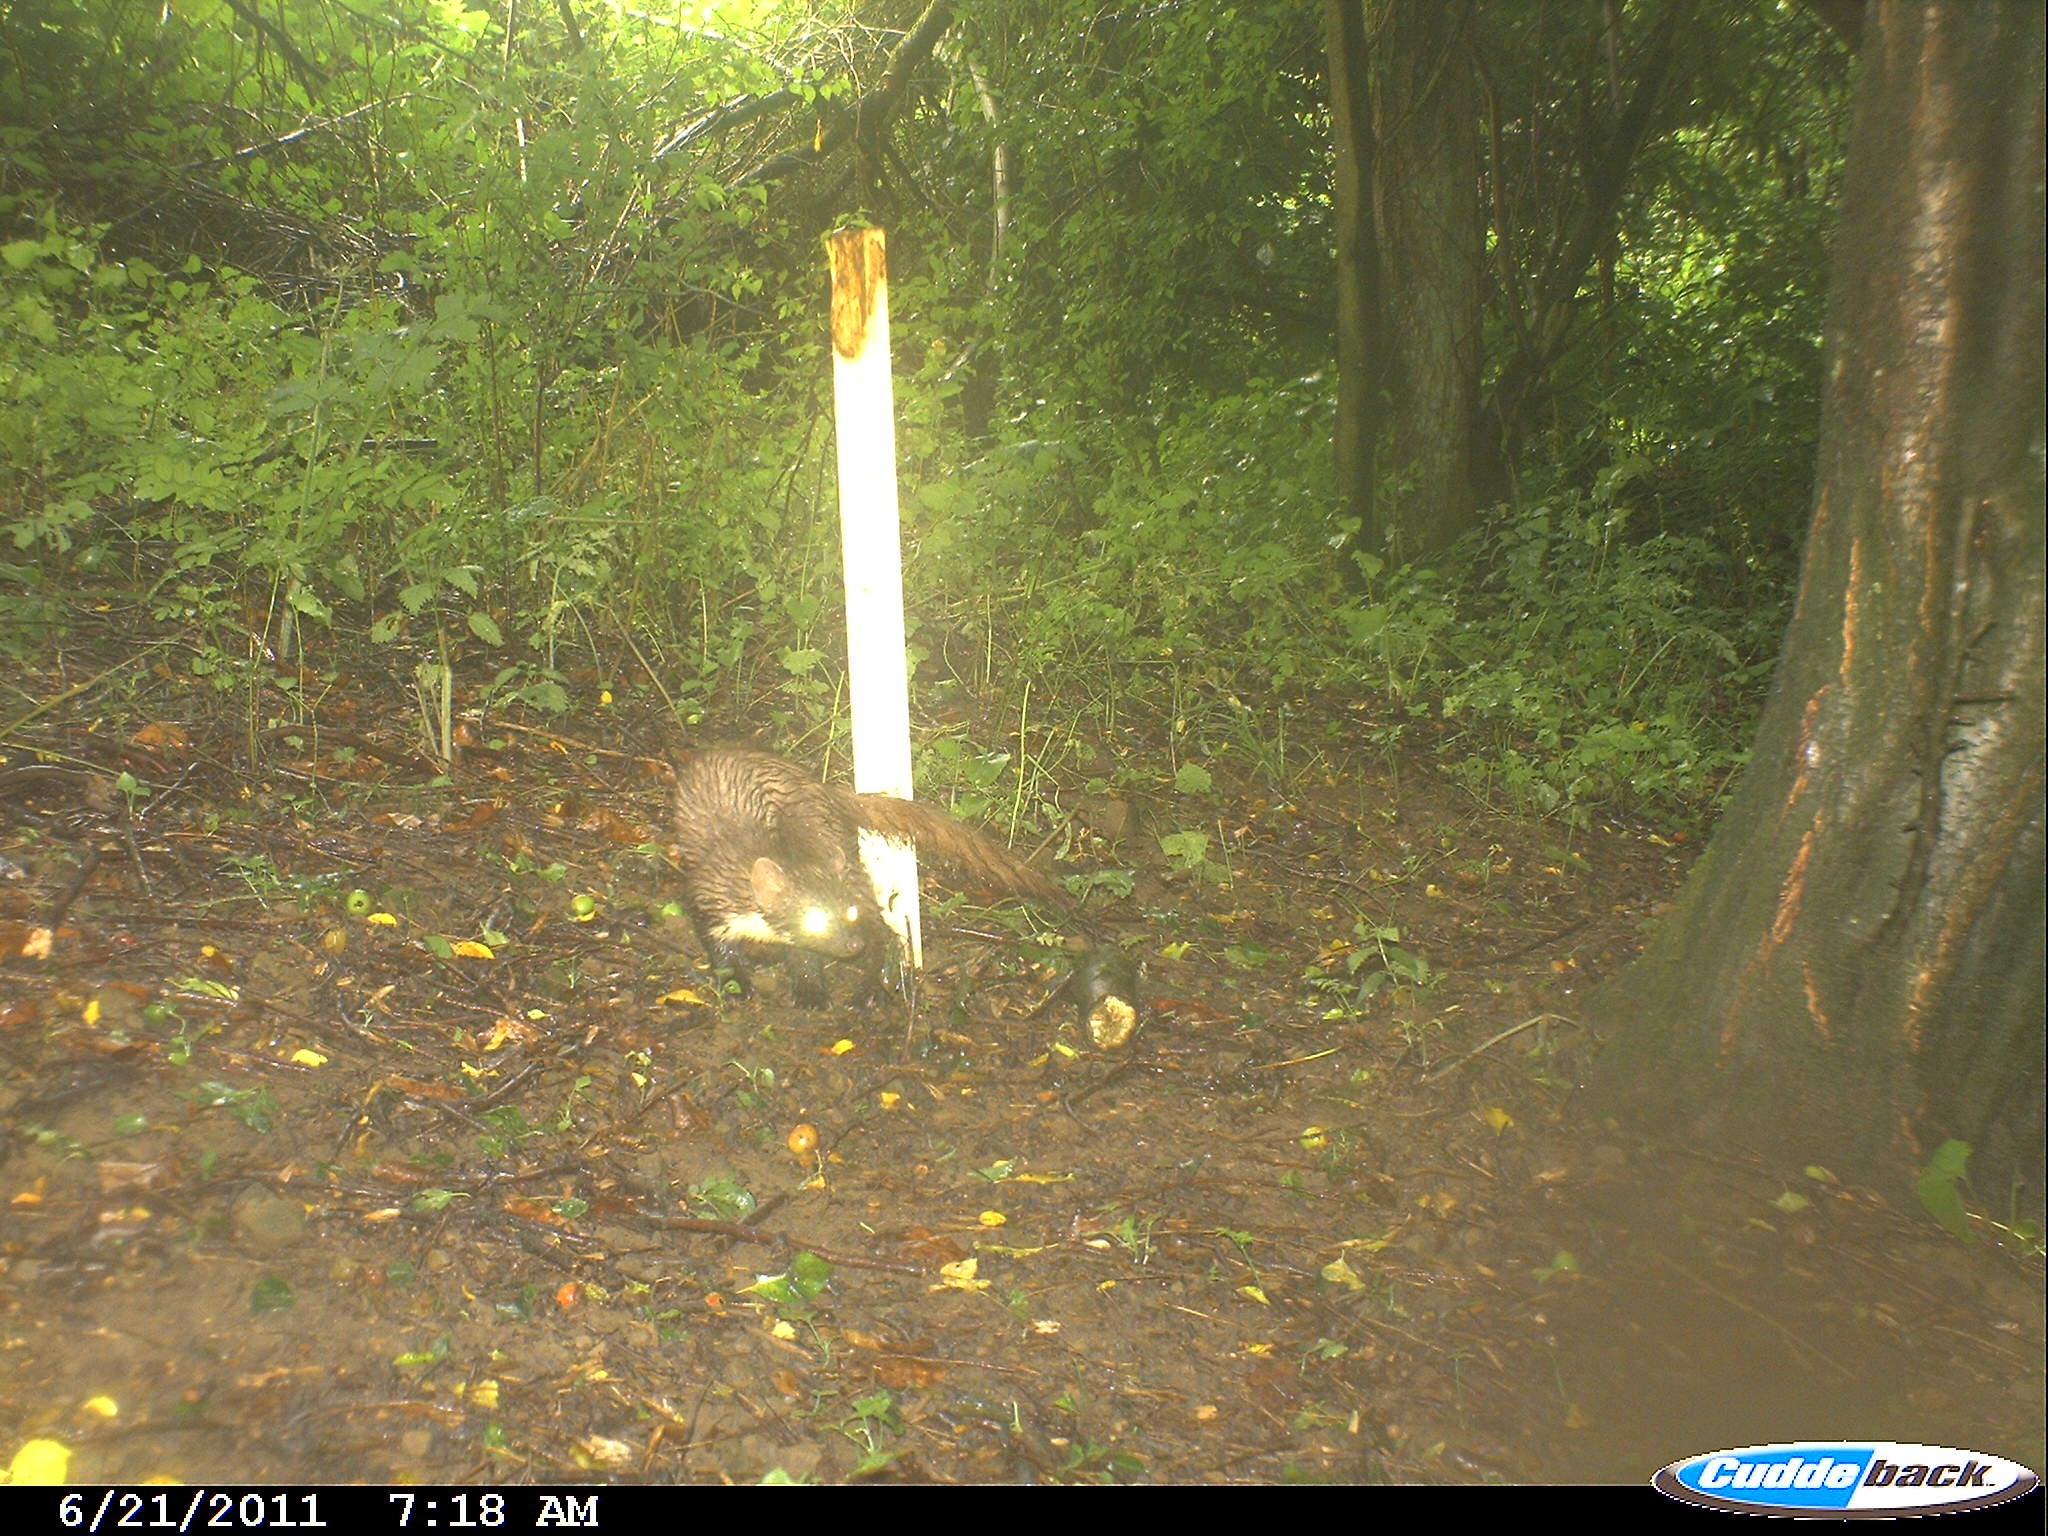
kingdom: Animalia
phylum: Chordata
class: Mammalia
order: Carnivora
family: Mustelidae
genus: Martes
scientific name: Martes foina
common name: Beech marten
